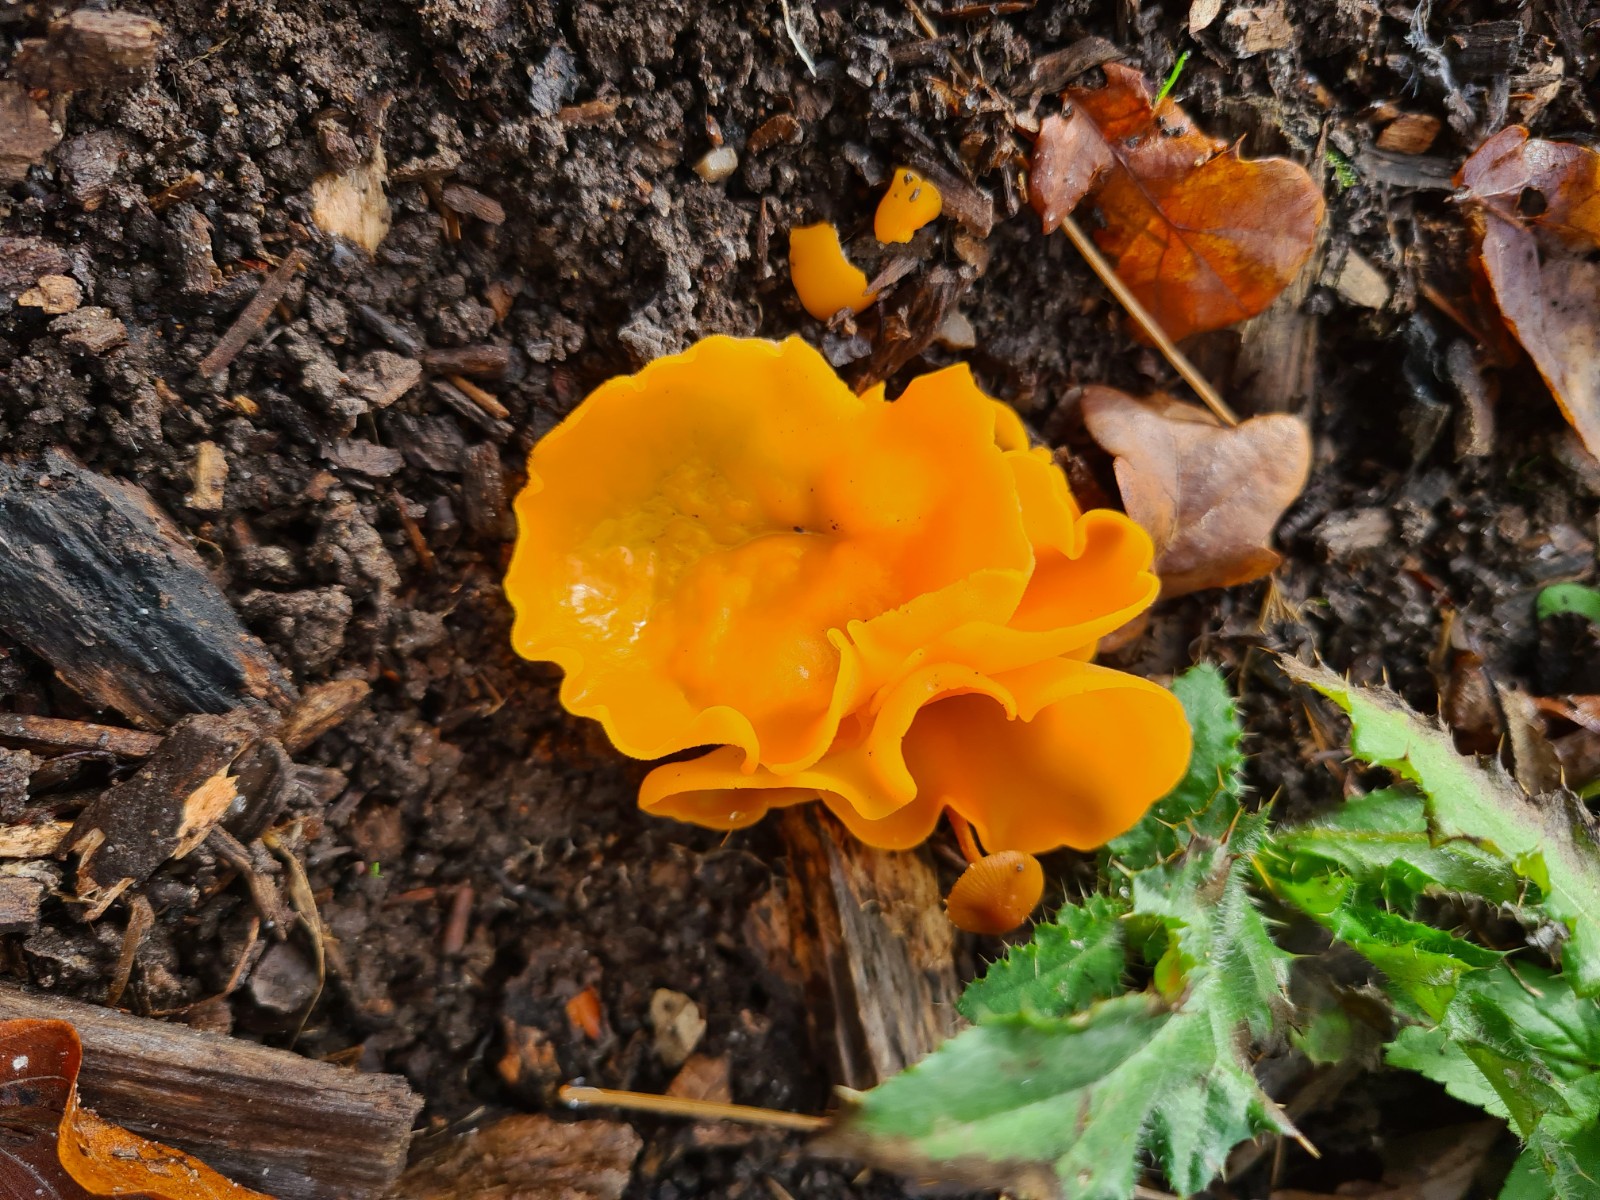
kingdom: Fungi
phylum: Ascomycota
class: Pezizomycetes
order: Pezizales
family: Pyronemataceae
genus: Aleuria
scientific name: Aleuria aurantia
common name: almindelig orangebæger
